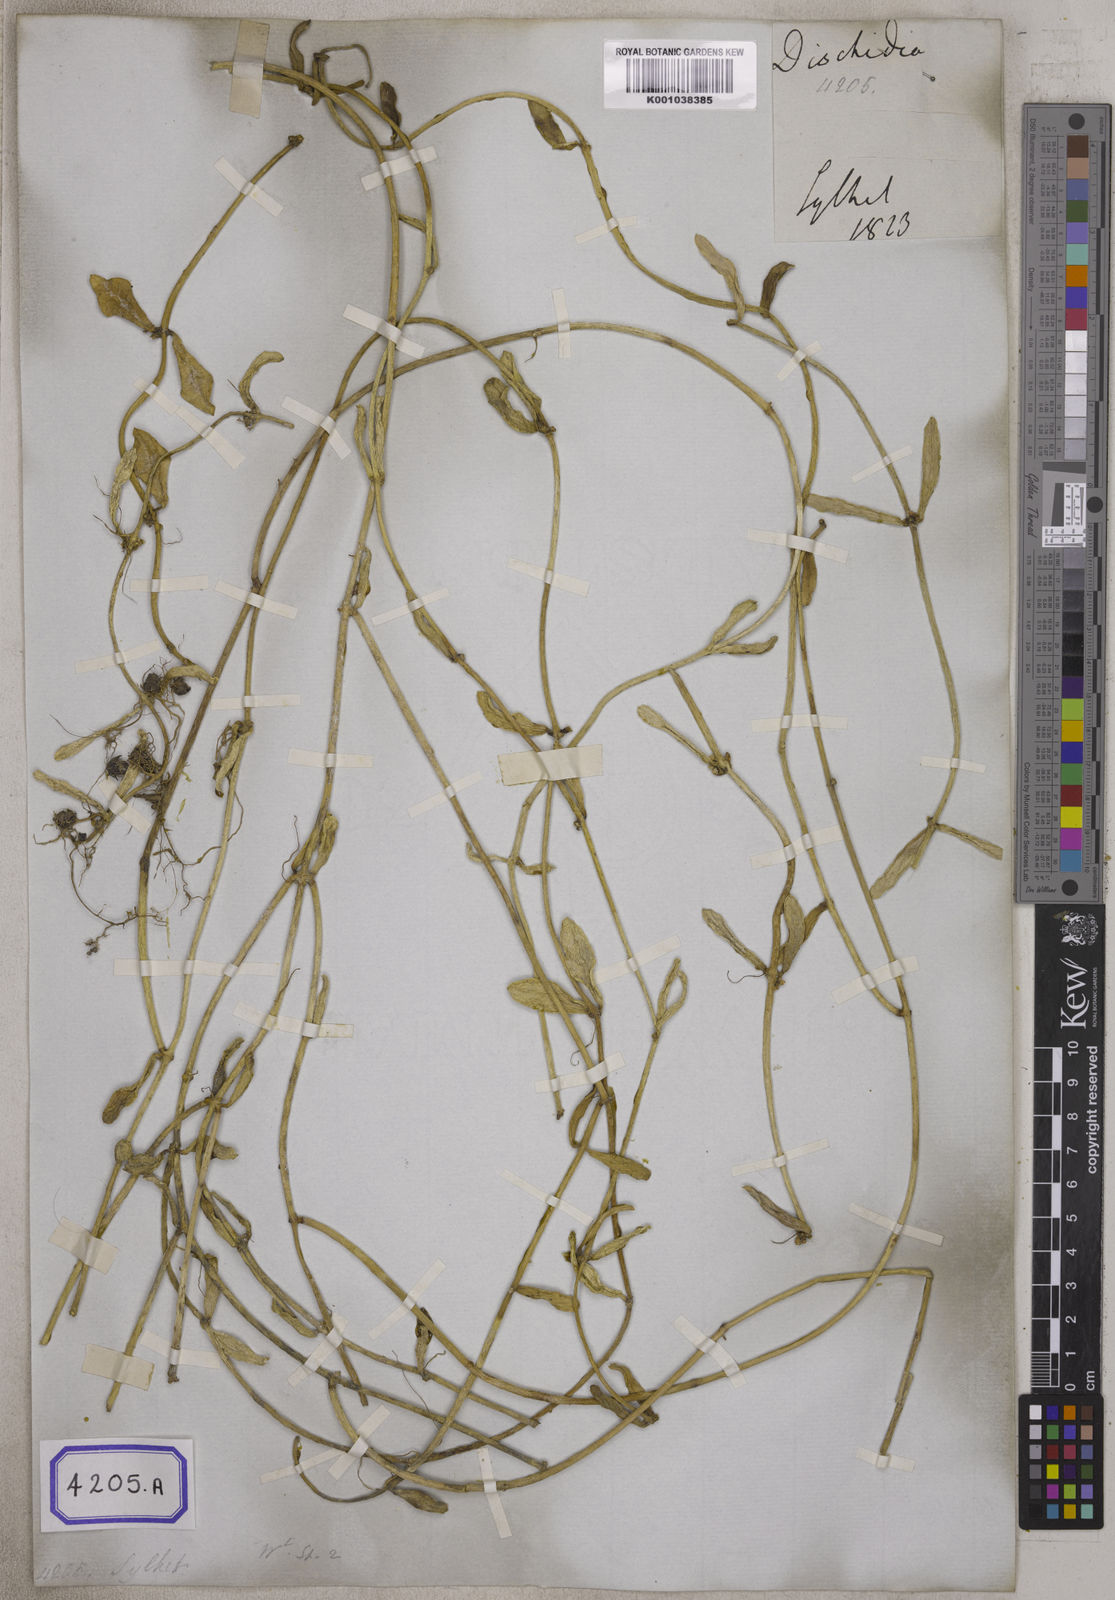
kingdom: Plantae
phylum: Tracheophyta
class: Magnoliopsida
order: Gentianales
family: Apocynaceae
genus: Dischidia
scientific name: Dischidia bengalensis
